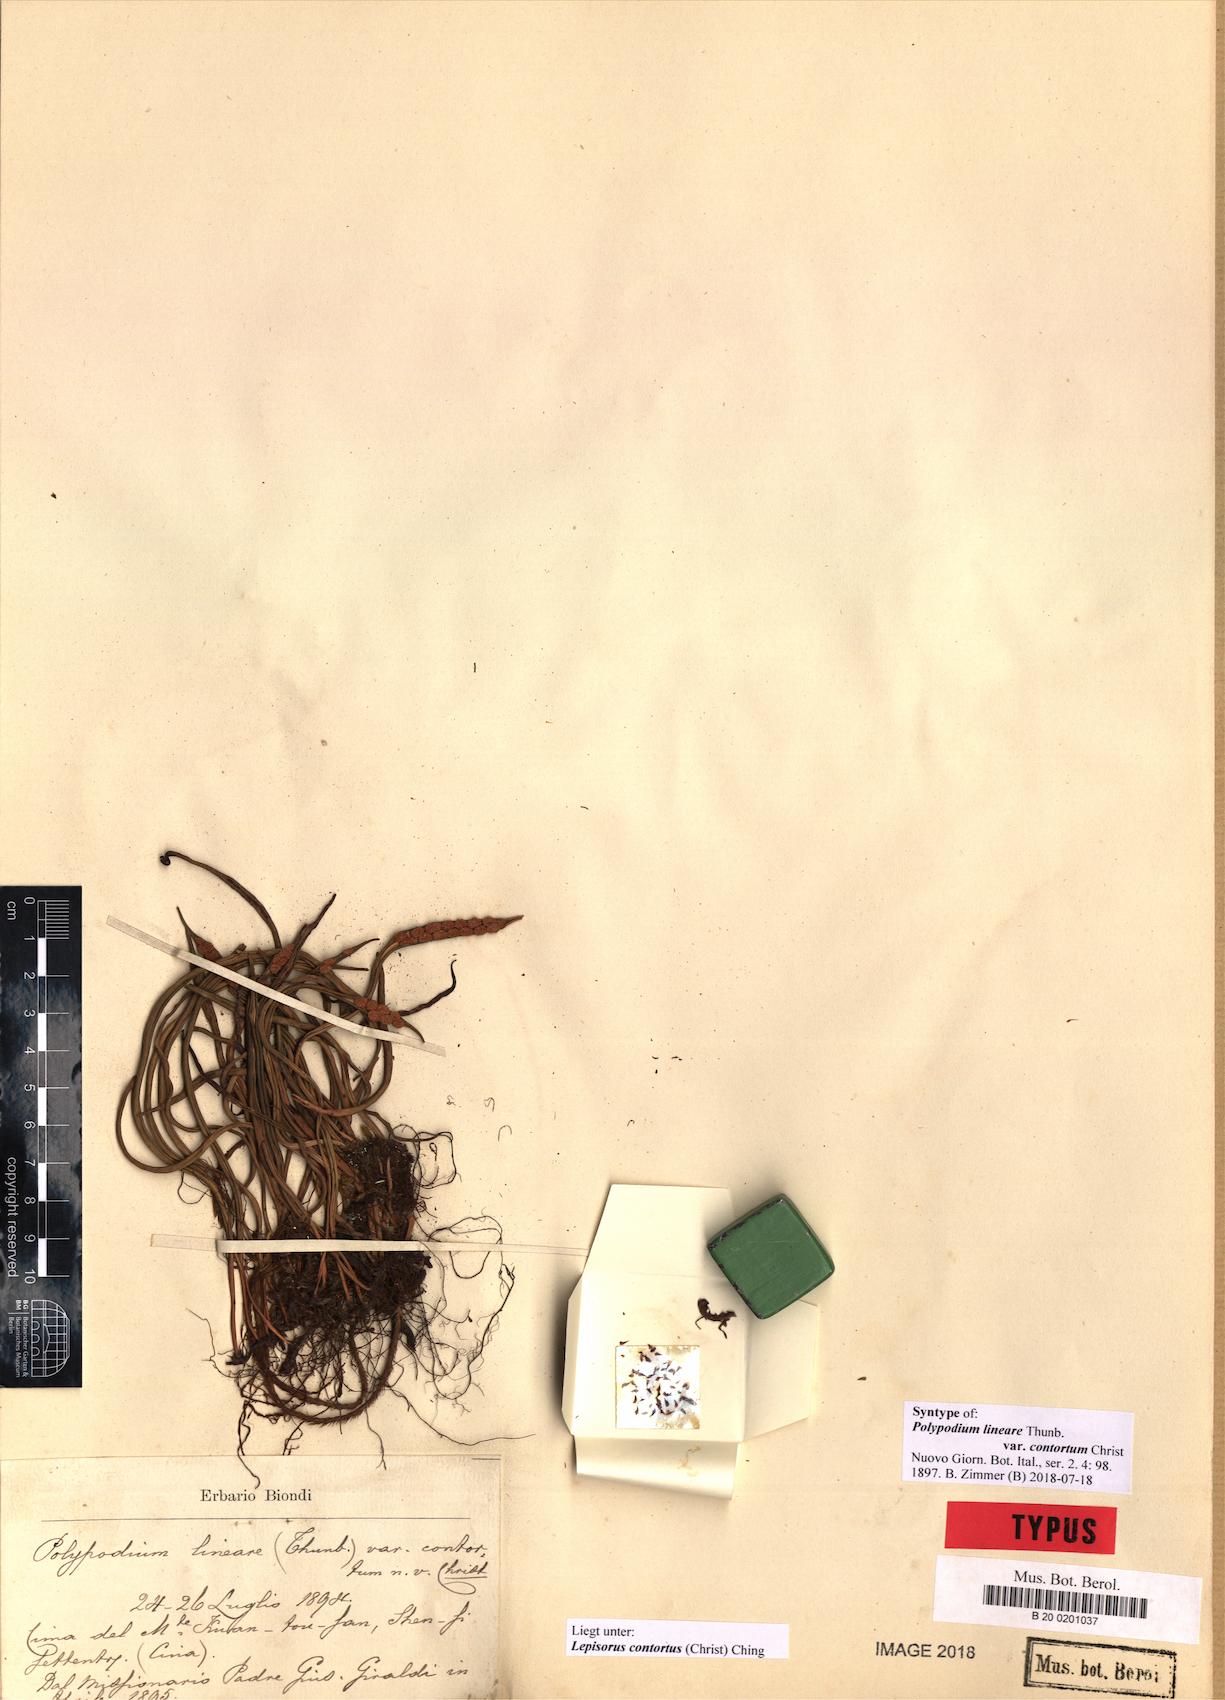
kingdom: Plantae
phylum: Tracheophyta
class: Polypodiopsida
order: Polypodiales
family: Polypodiaceae
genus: Lepisorus
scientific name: Lepisorus contortus
